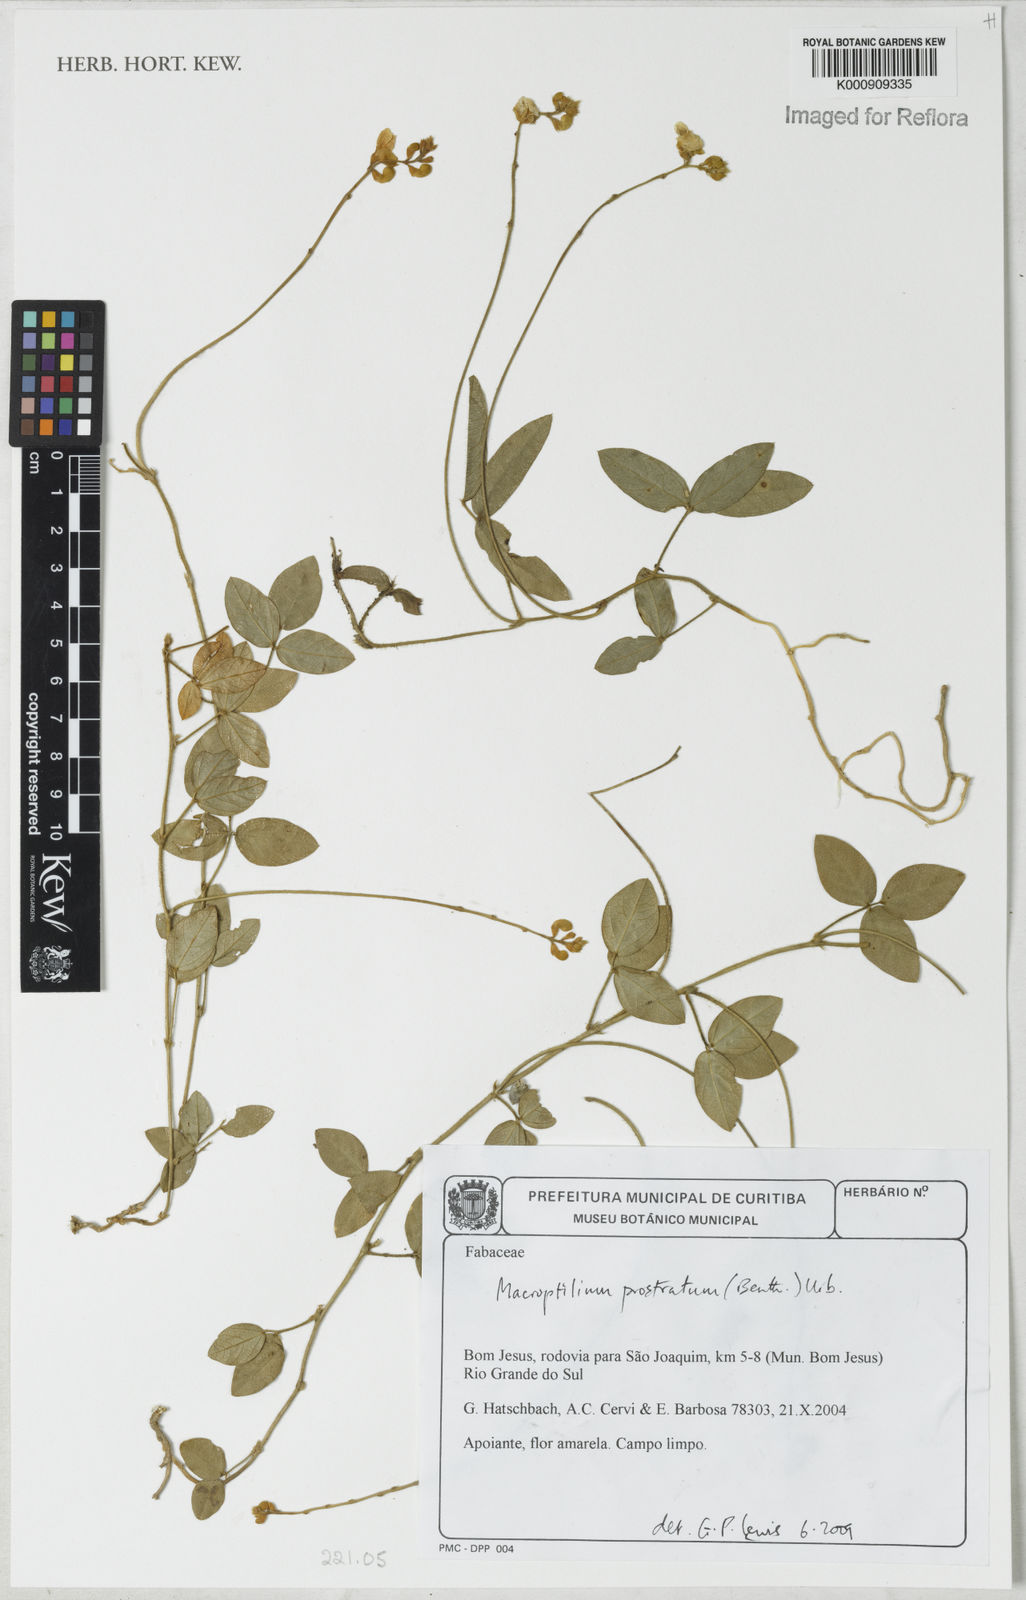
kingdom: Plantae
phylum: Tracheophyta
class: Magnoliopsida
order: Fabales
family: Fabaceae
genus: Macroptilium
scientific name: Macroptilium prostratum
